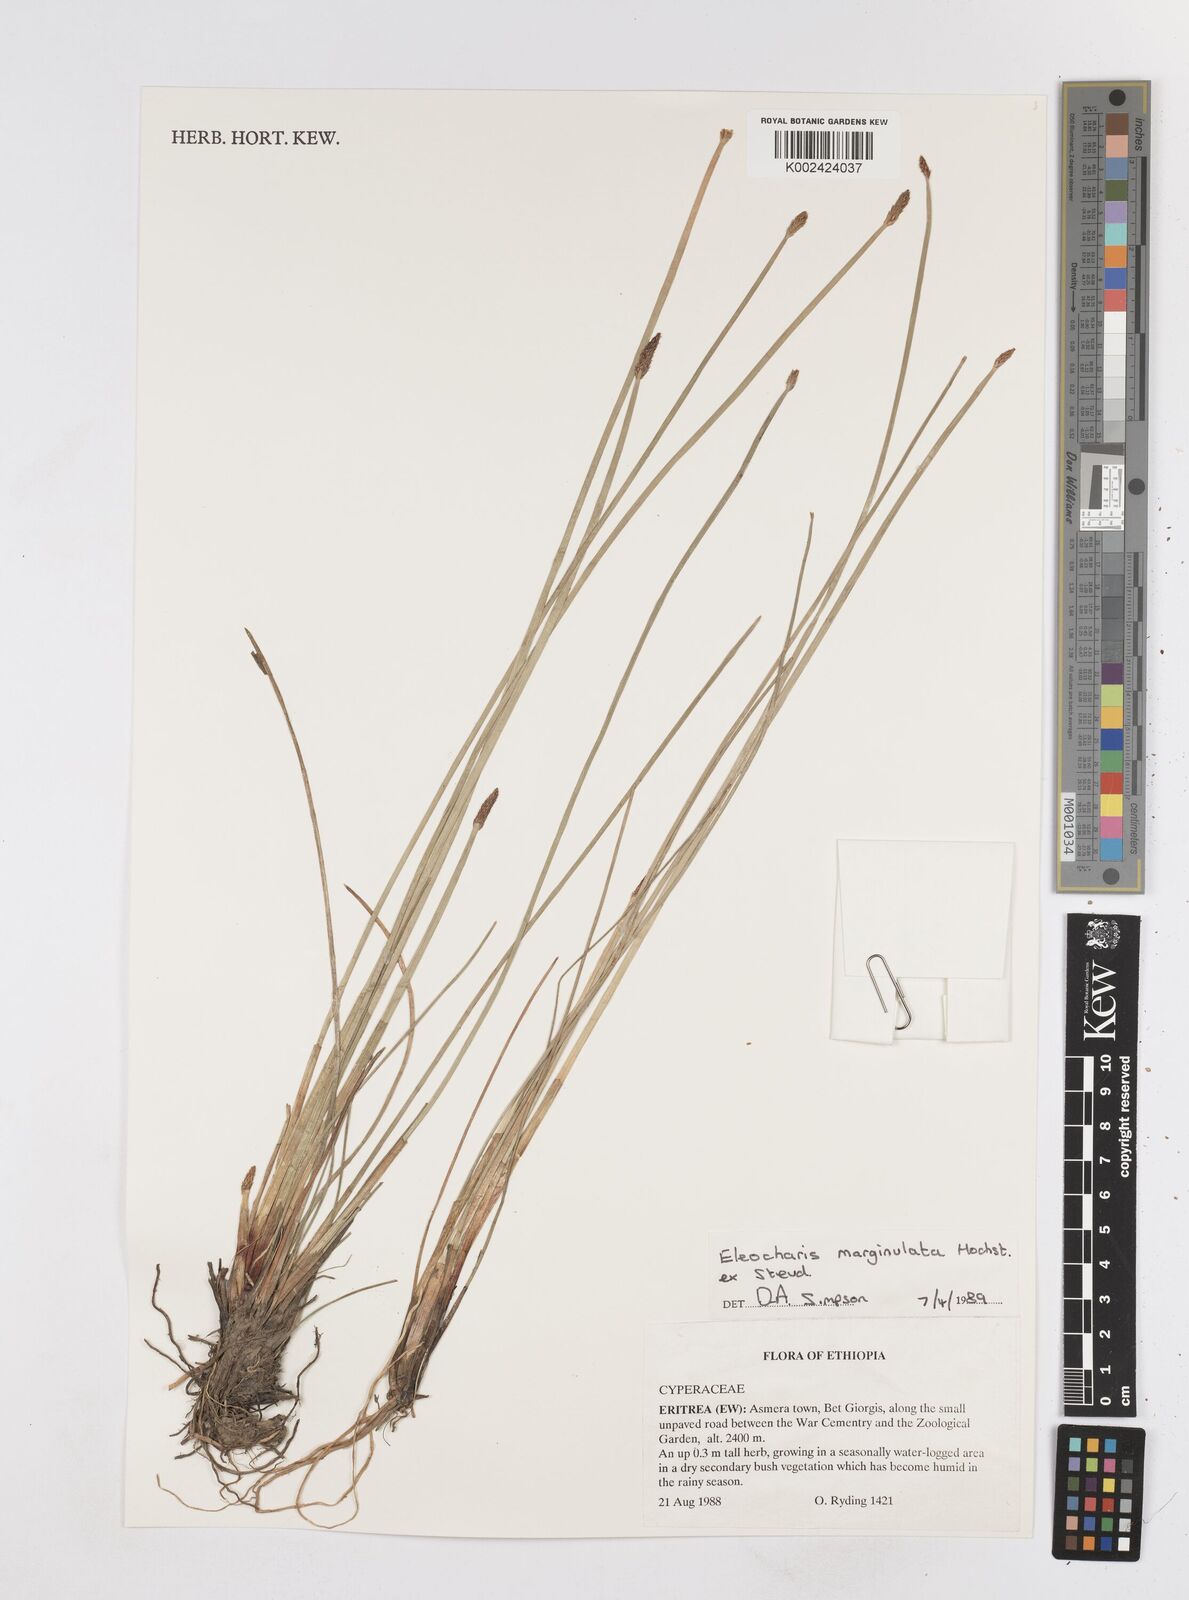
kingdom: Plantae
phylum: Tracheophyta
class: Liliopsida
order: Poales
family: Cyperaceae
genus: Eleocharis
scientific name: Eleocharis marginulata
